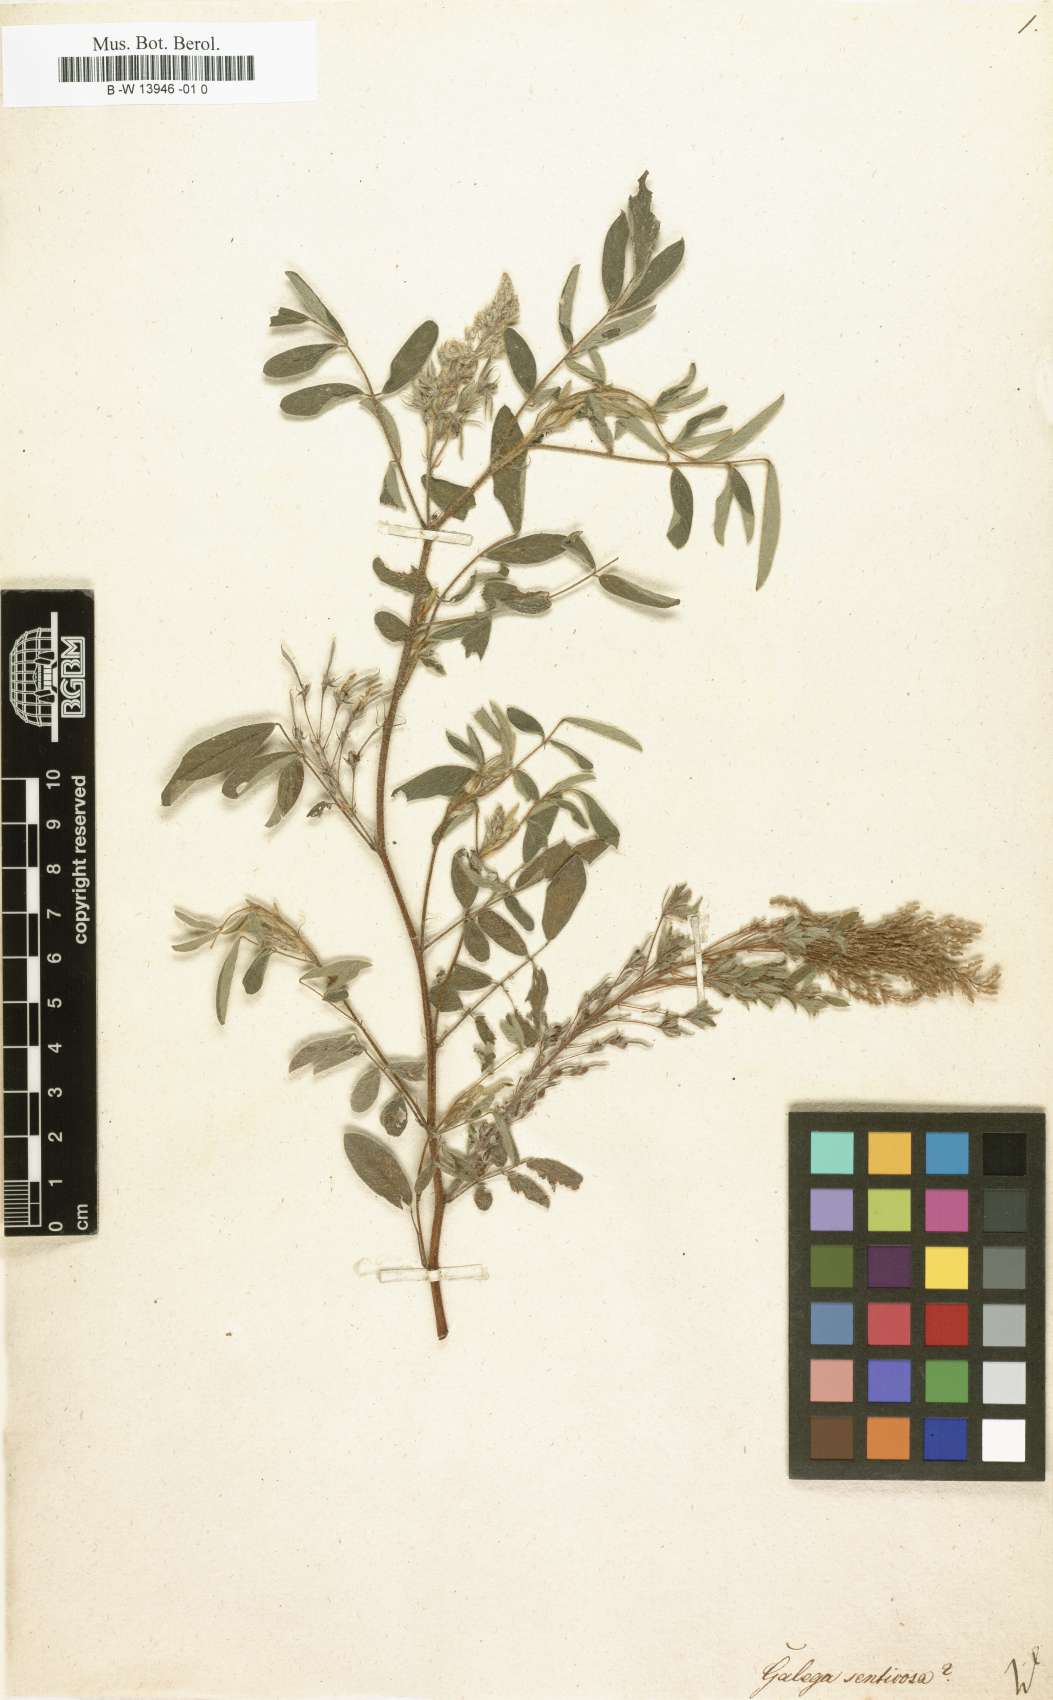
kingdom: Plantae
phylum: Tracheophyta
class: Magnoliopsida
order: Fabales
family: Fabaceae
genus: Tephrosia
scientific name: Tephrosia senticosa
